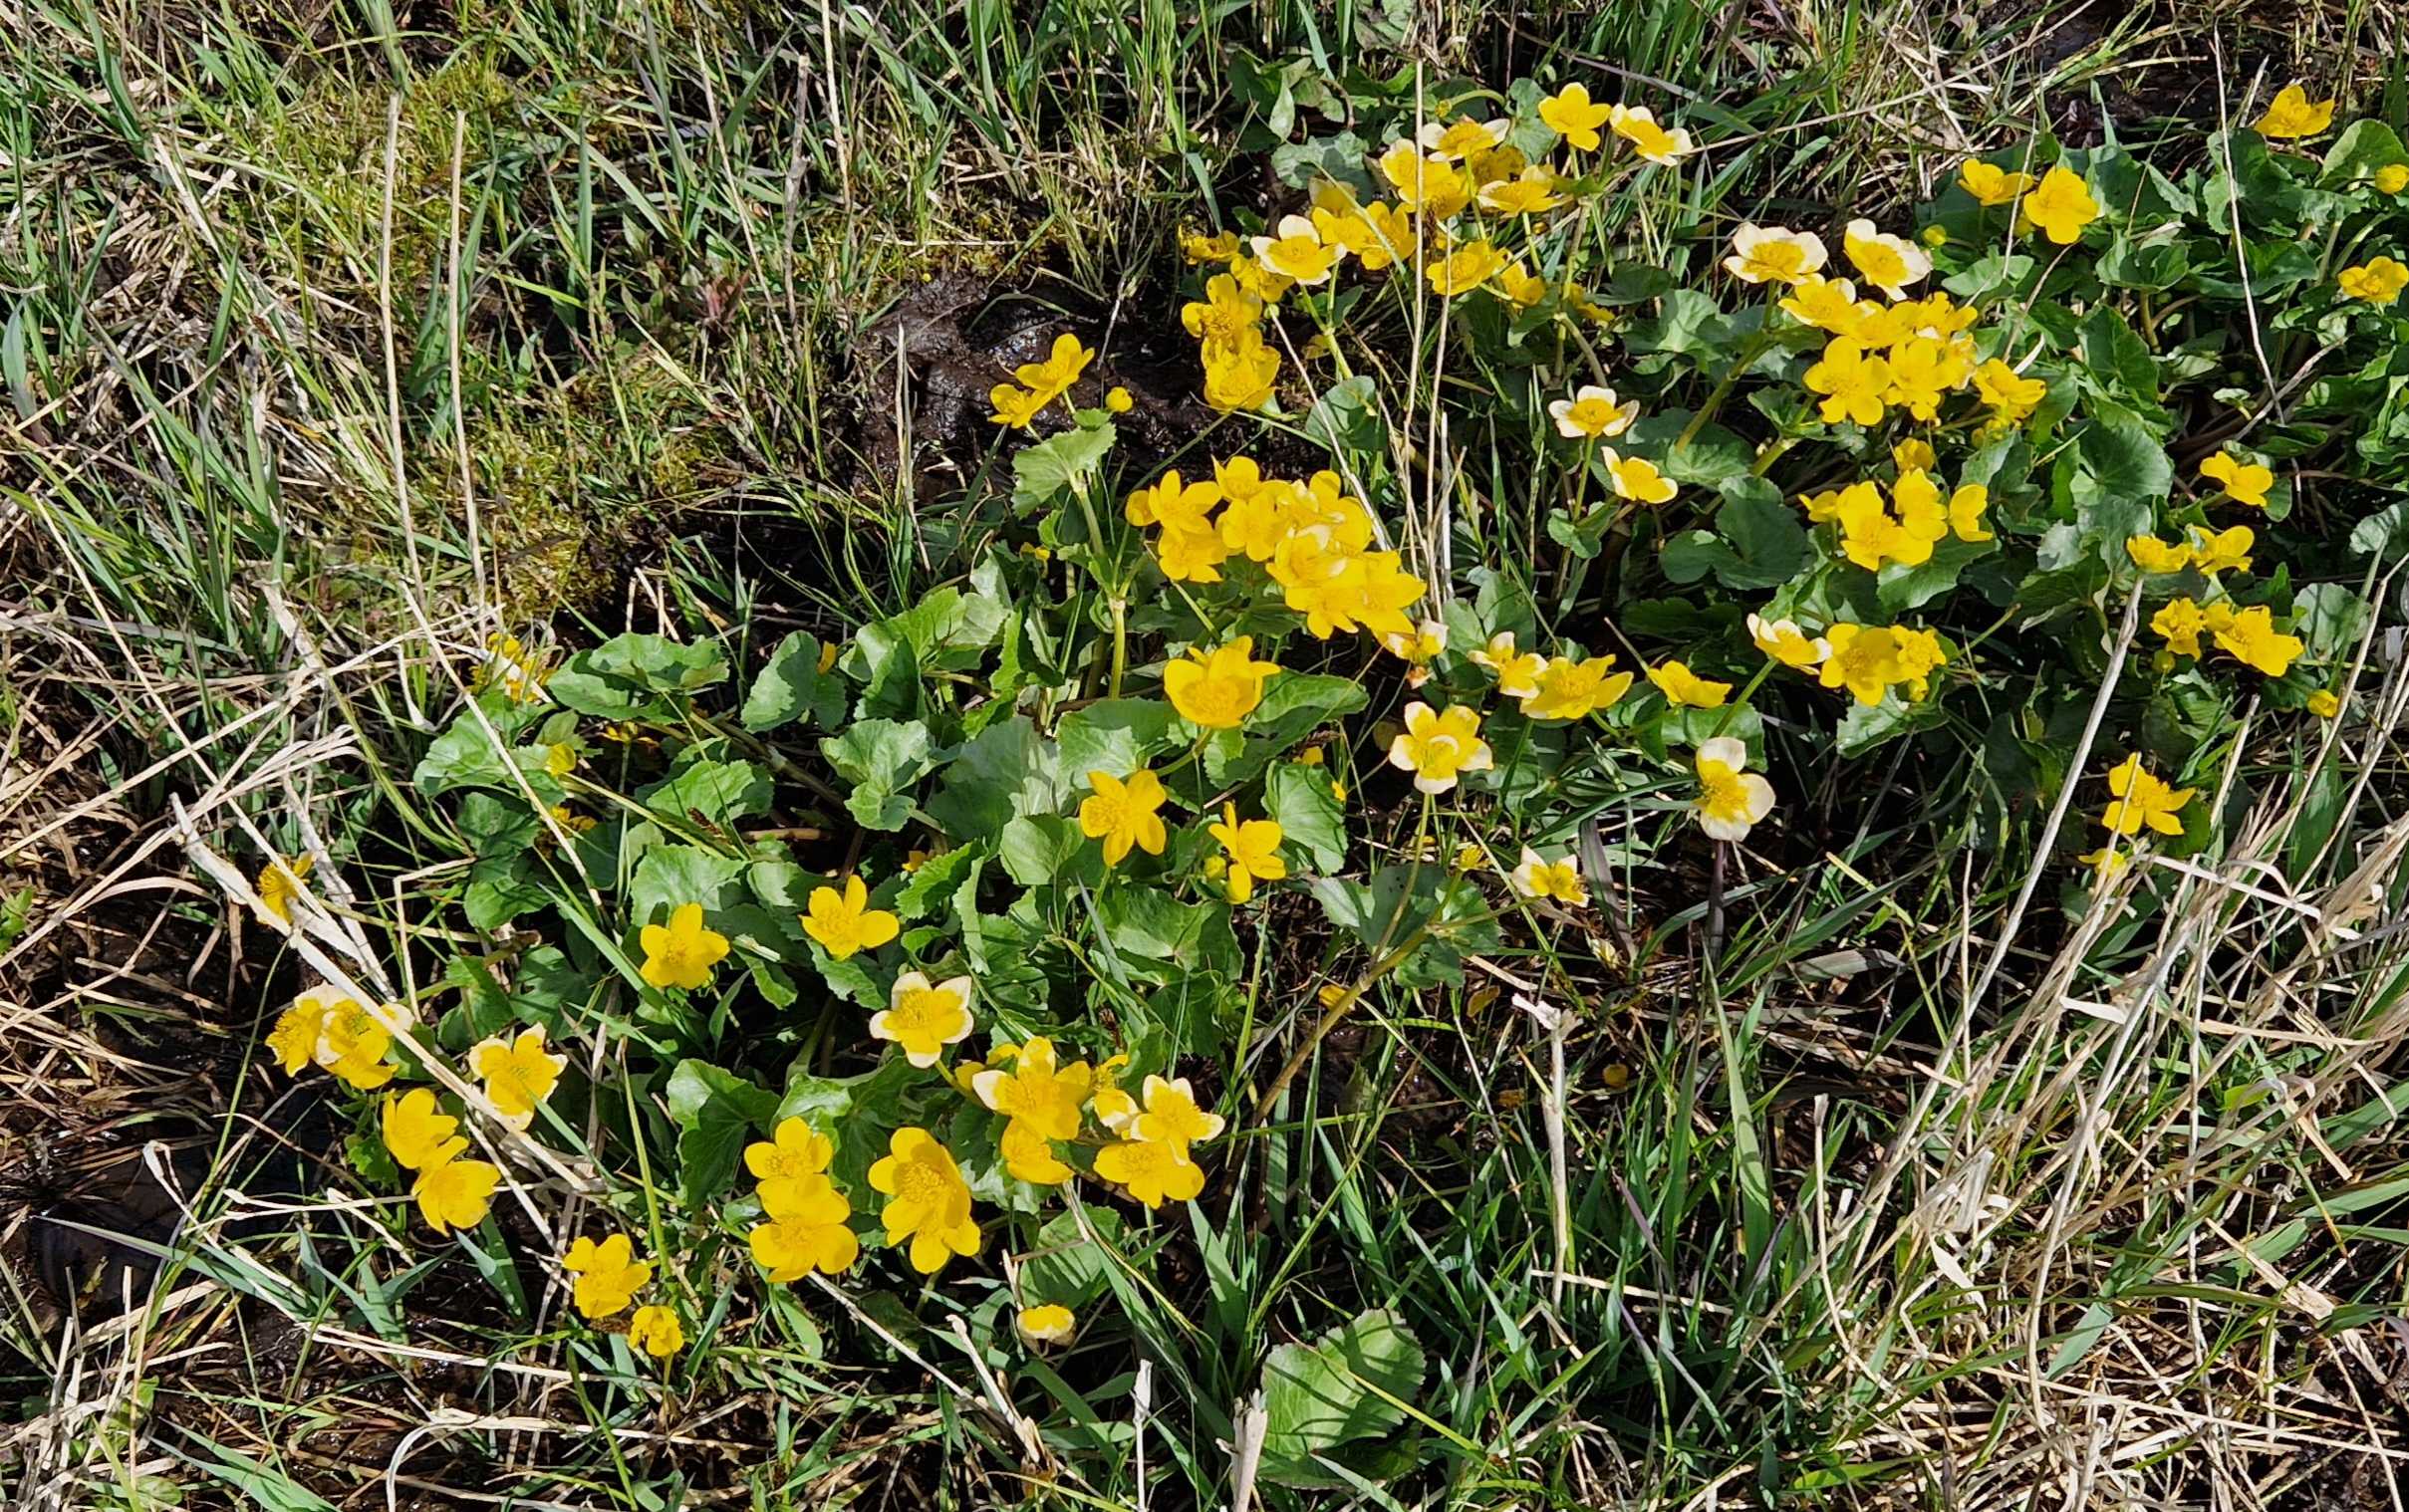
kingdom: Plantae
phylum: Tracheophyta
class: Magnoliopsida
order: Ranunculales
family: Ranunculaceae
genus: Caltha
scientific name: Caltha palustris
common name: Eng-kabbeleje
